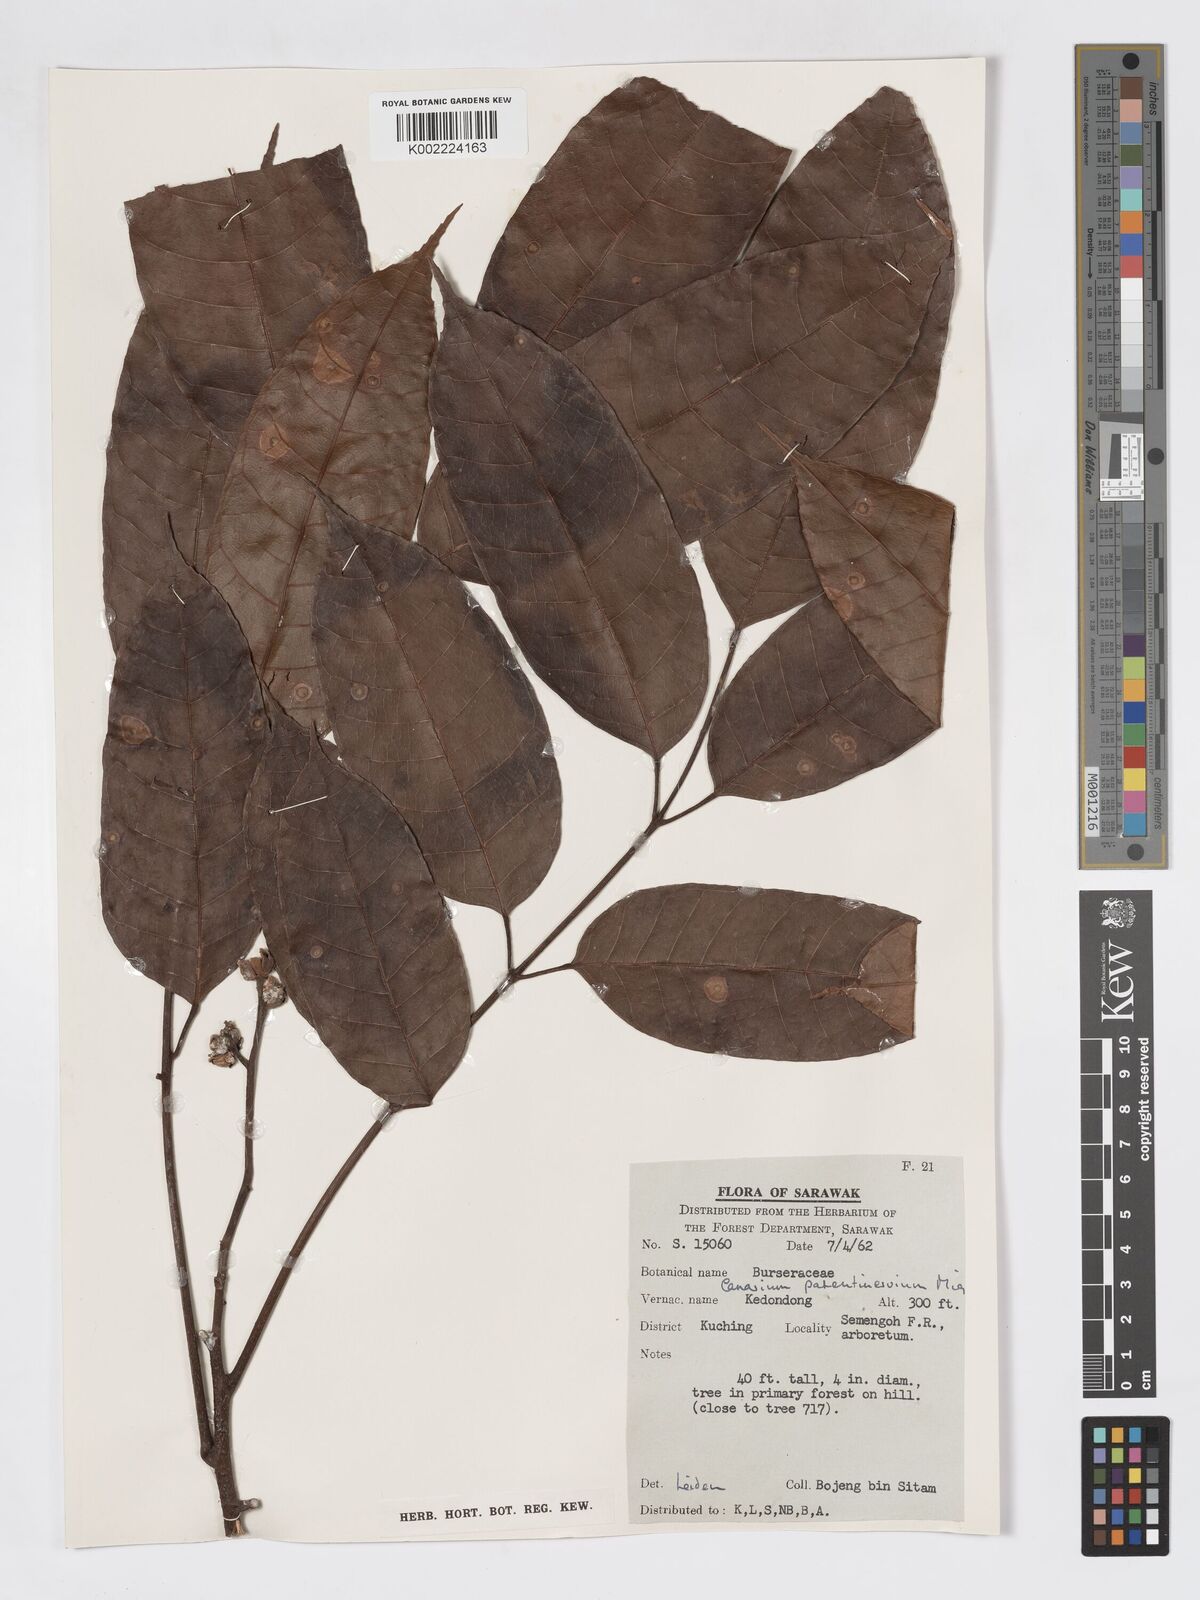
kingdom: Plantae
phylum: Tracheophyta
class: Magnoliopsida
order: Sapindales
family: Burseraceae
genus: Canarium
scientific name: Canarium patentinervium
